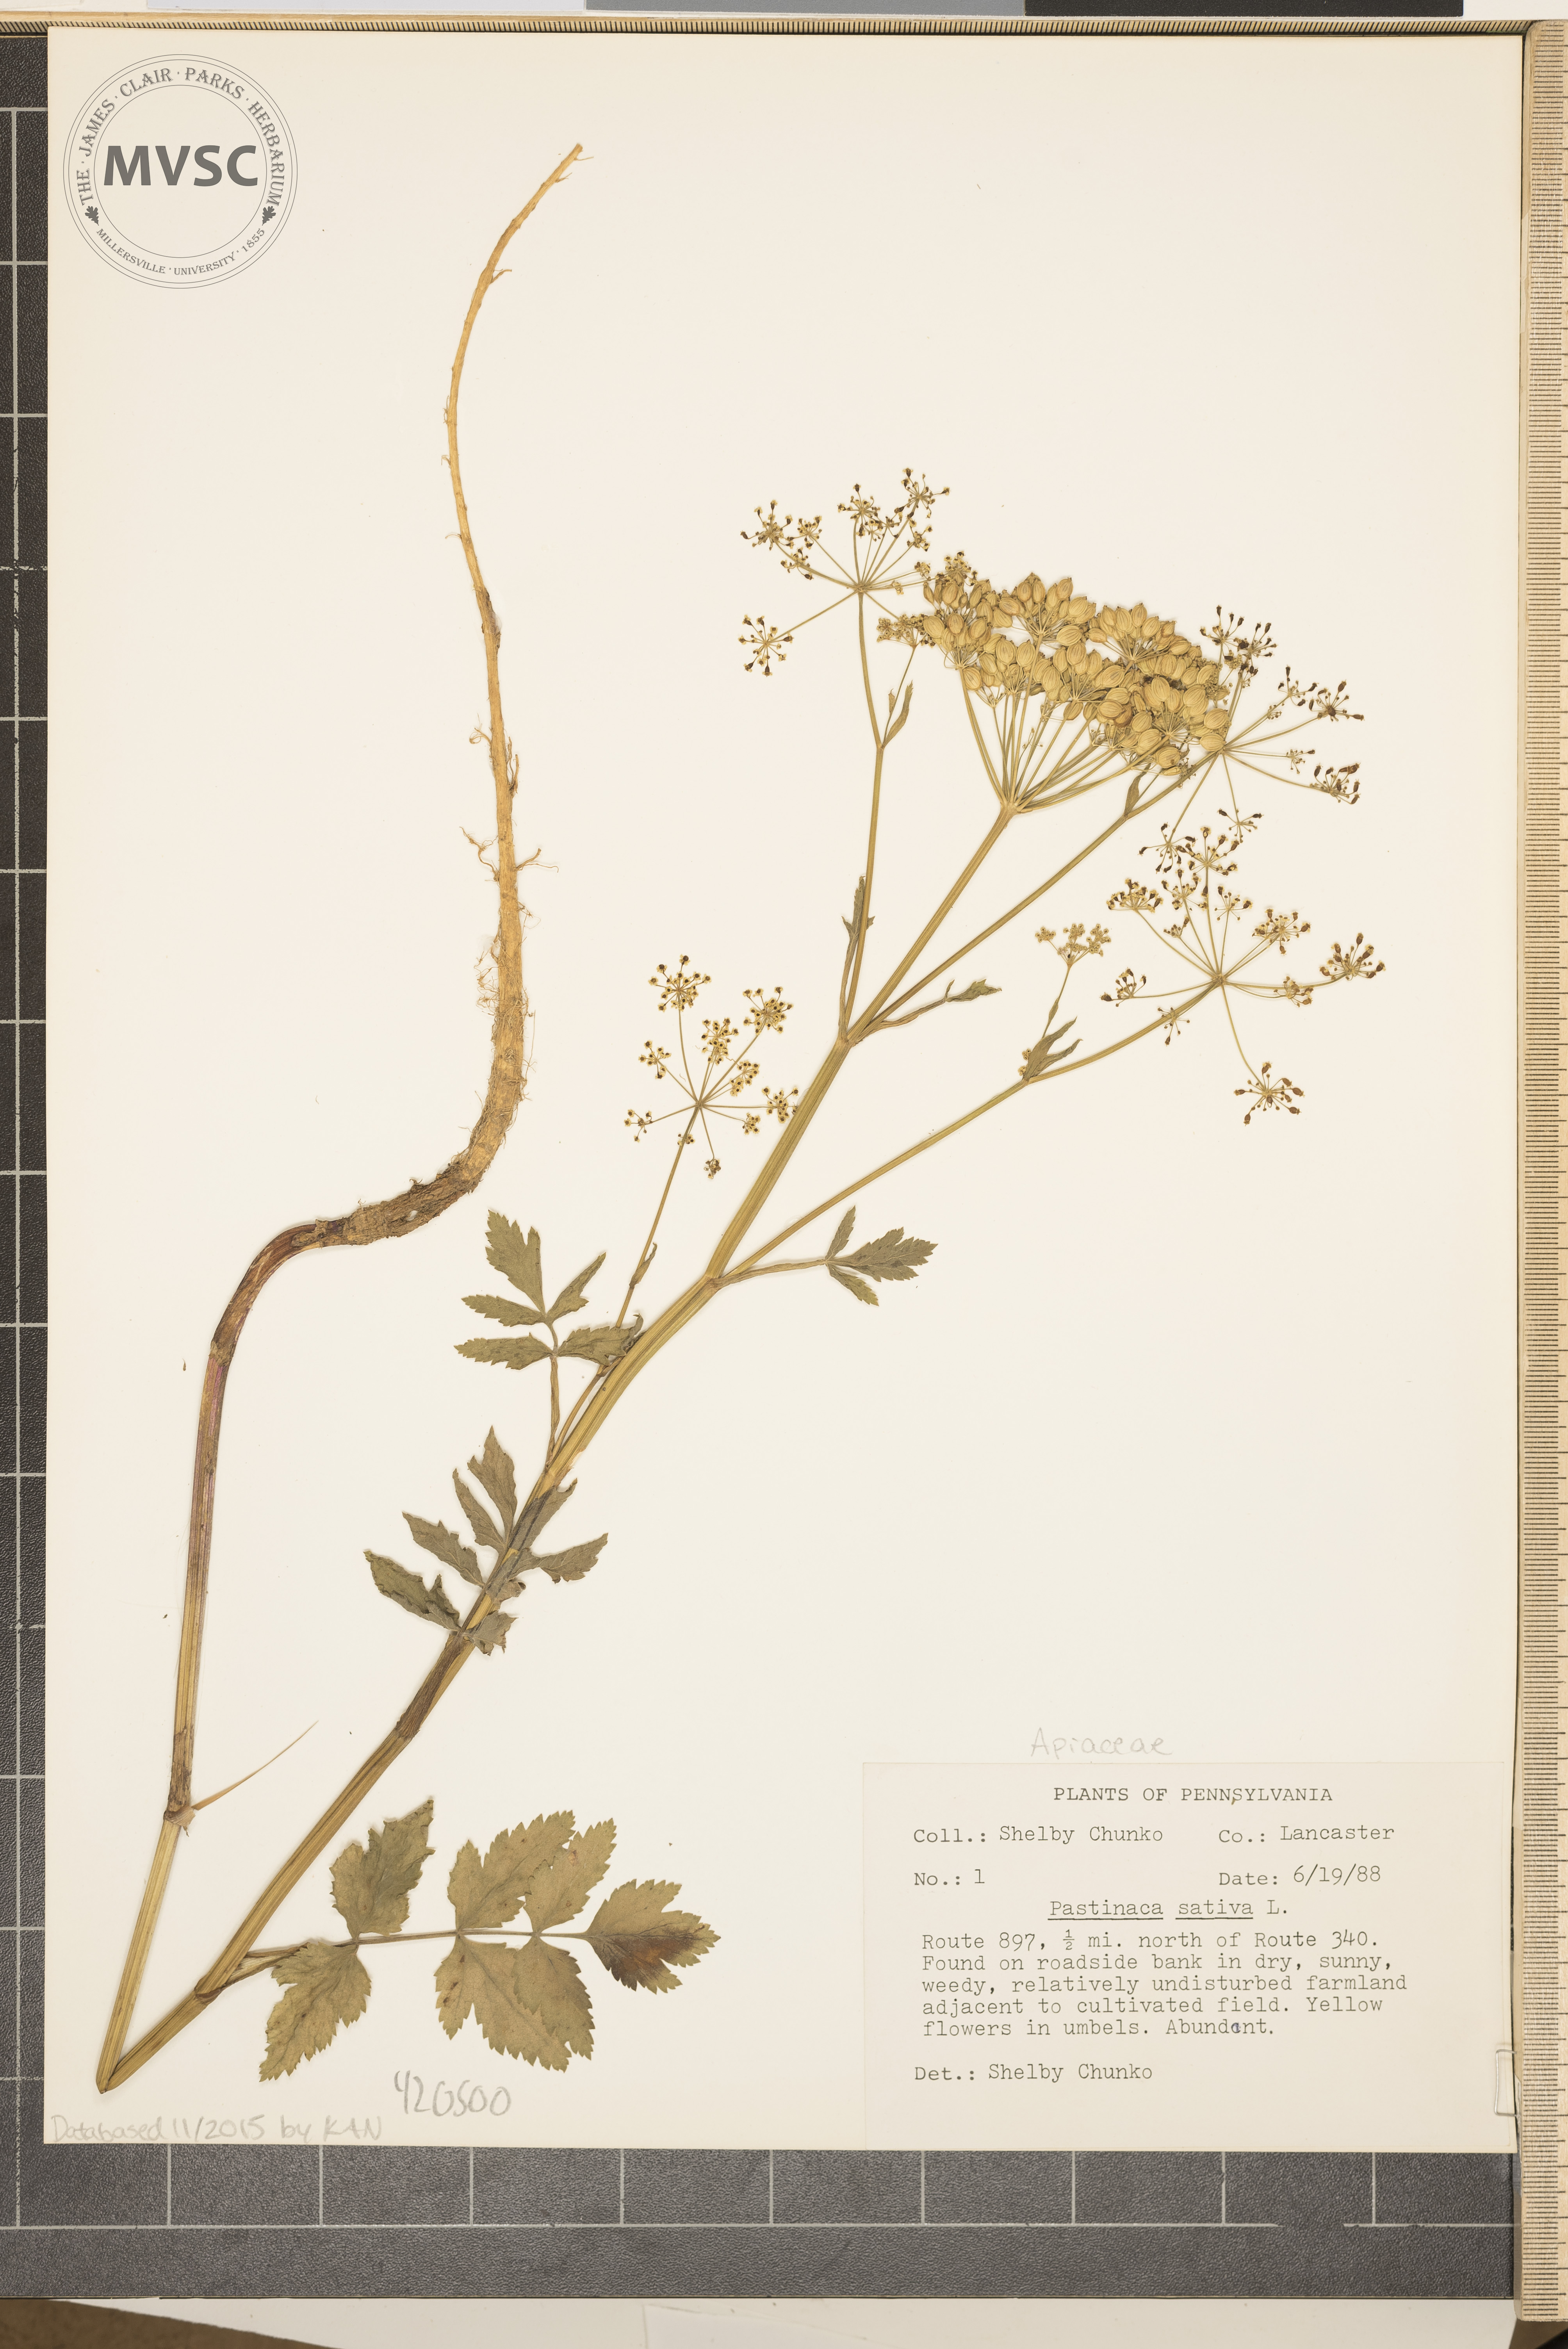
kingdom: Plantae
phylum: Tracheophyta
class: Magnoliopsida
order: Apiales
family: Apiaceae
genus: Pastinaca
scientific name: Pastinaca sativa
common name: Parsnip
